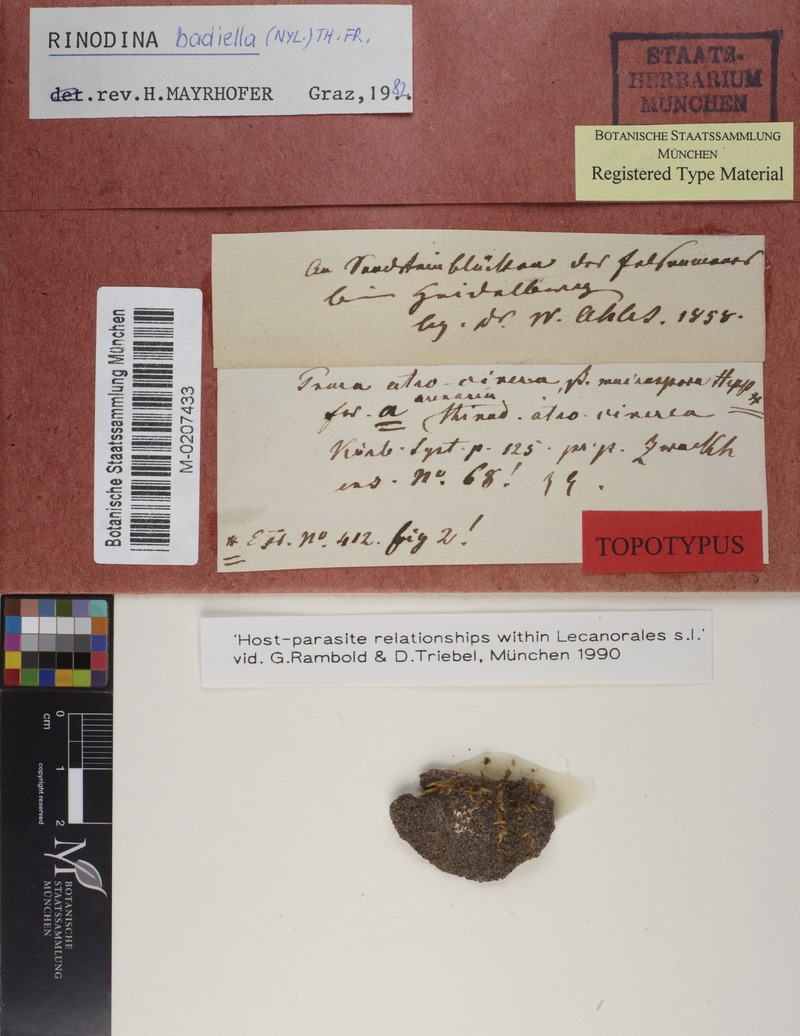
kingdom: Fungi
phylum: Ascomycota
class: Lecanoromycetes
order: Caliciales
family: Physciaceae
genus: Rinodina
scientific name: Rinodina tephraspis
